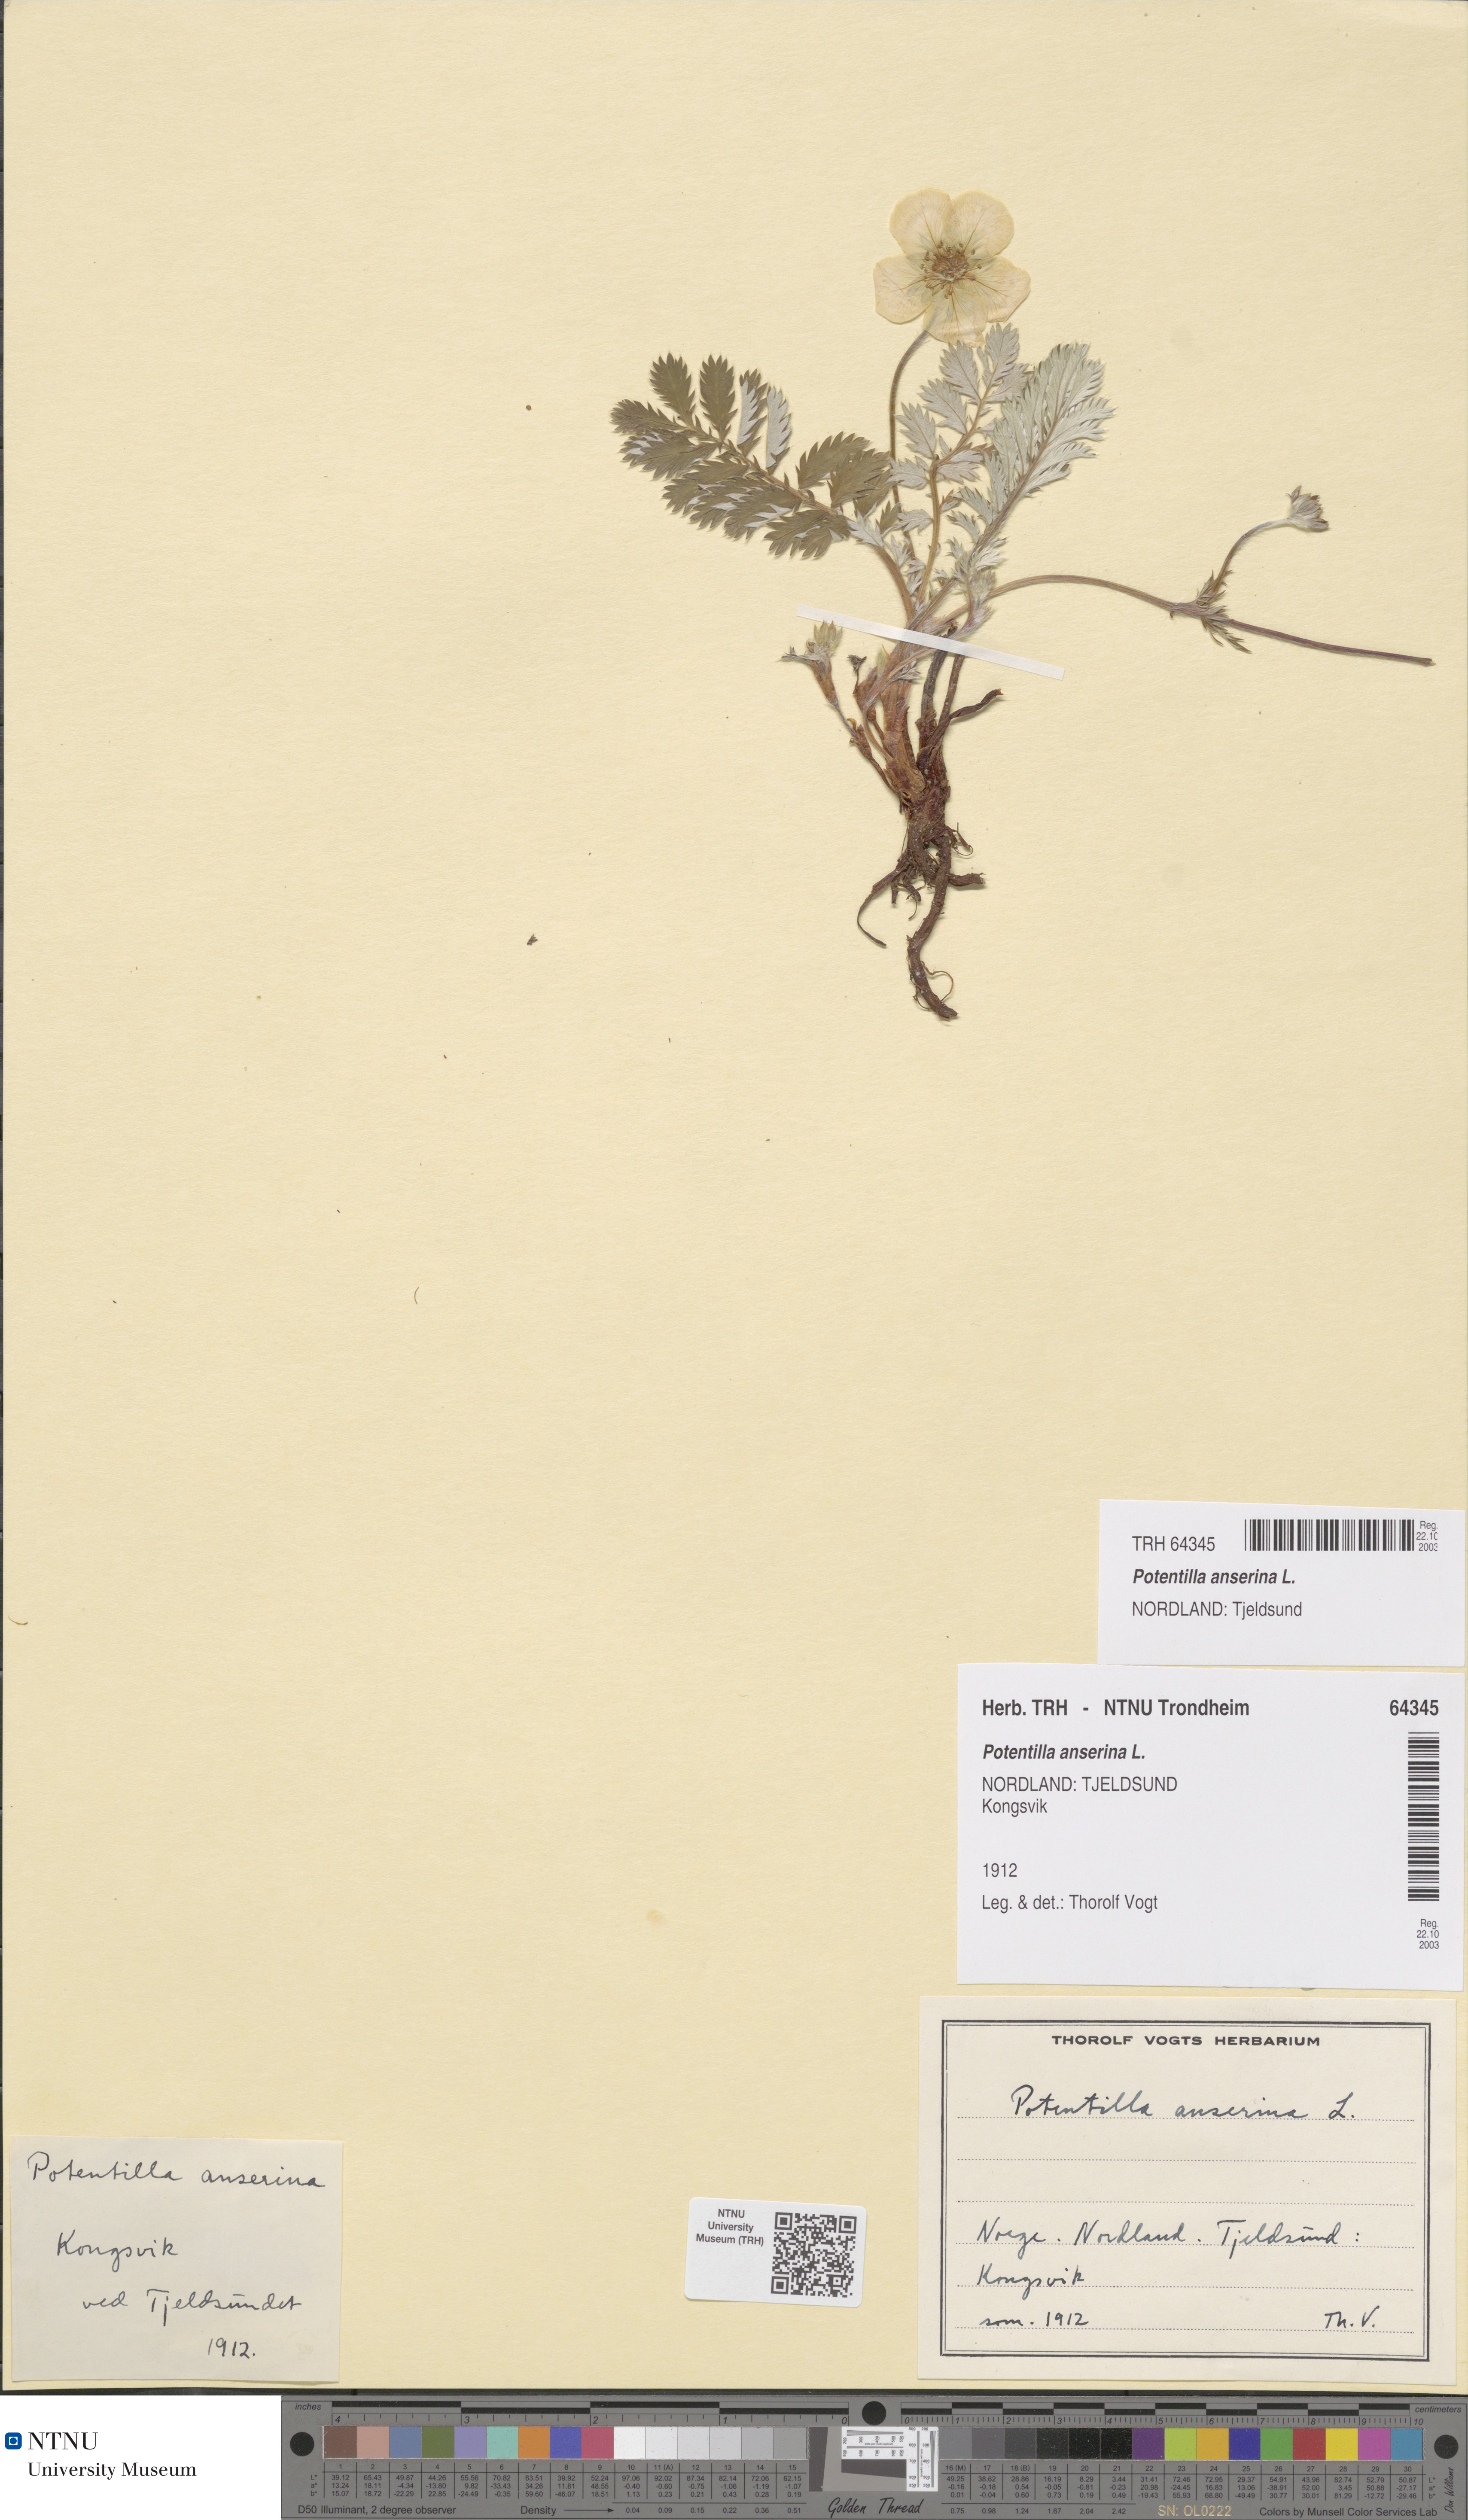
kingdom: Plantae
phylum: Tracheophyta
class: Magnoliopsida
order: Rosales
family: Rosaceae
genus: Argentina
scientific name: Argentina anserina
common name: Common silverweed
